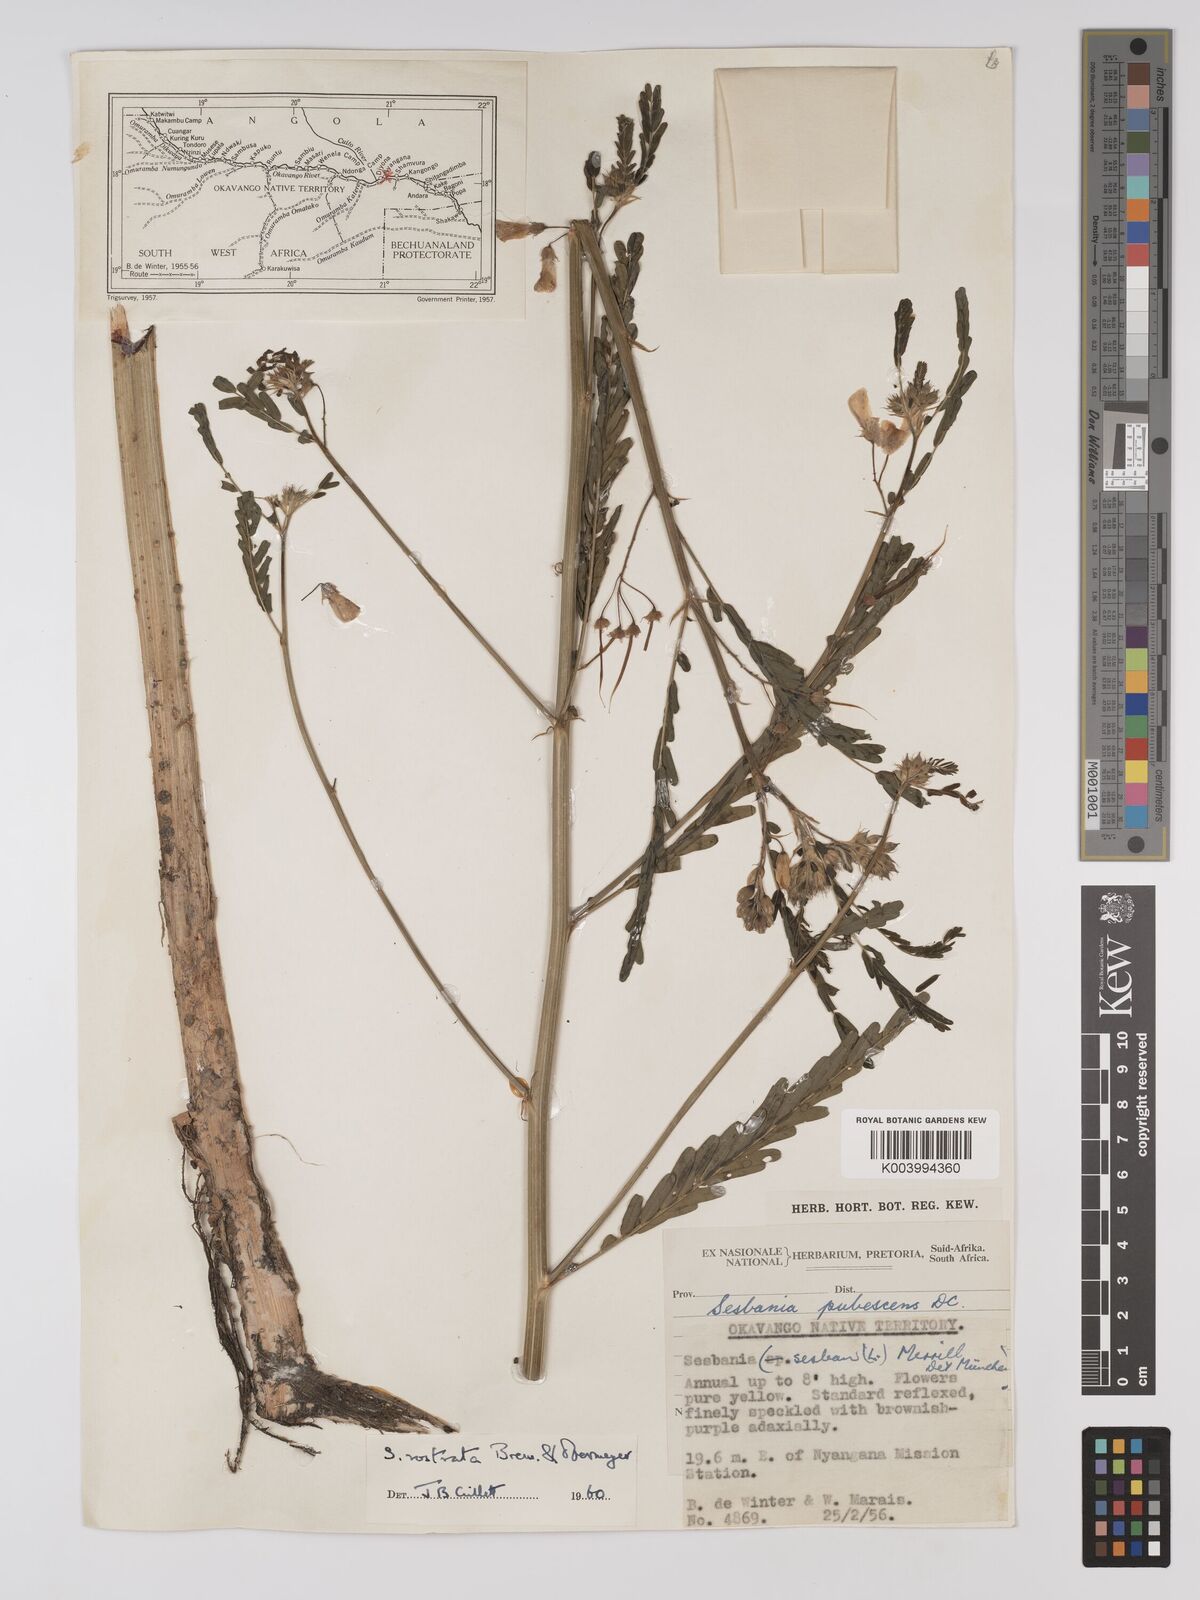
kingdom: Plantae
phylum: Tracheophyta
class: Magnoliopsida
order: Fabales
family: Fabaceae
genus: Sesbania
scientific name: Sesbania rostrata
